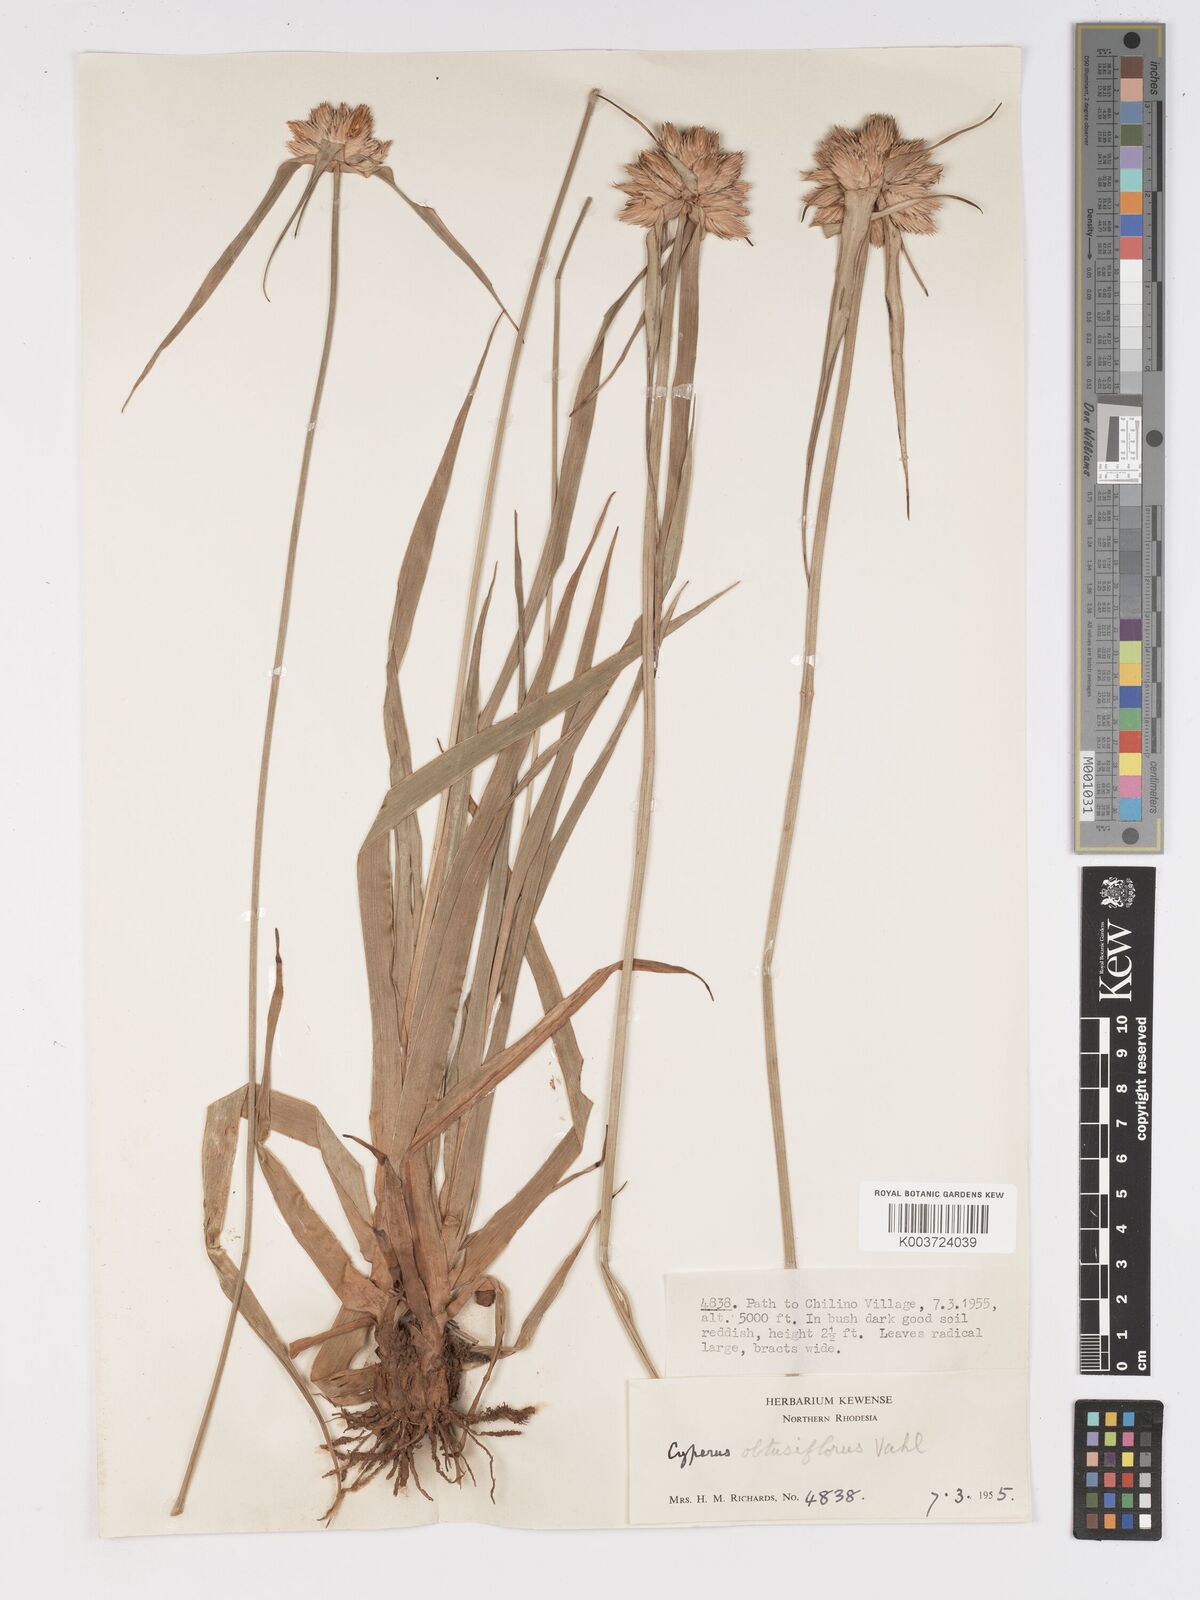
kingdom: Plantae
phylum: Tracheophyta
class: Liliopsida
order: Poales
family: Cyperaceae
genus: Cyperus
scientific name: Cyperus niveus
